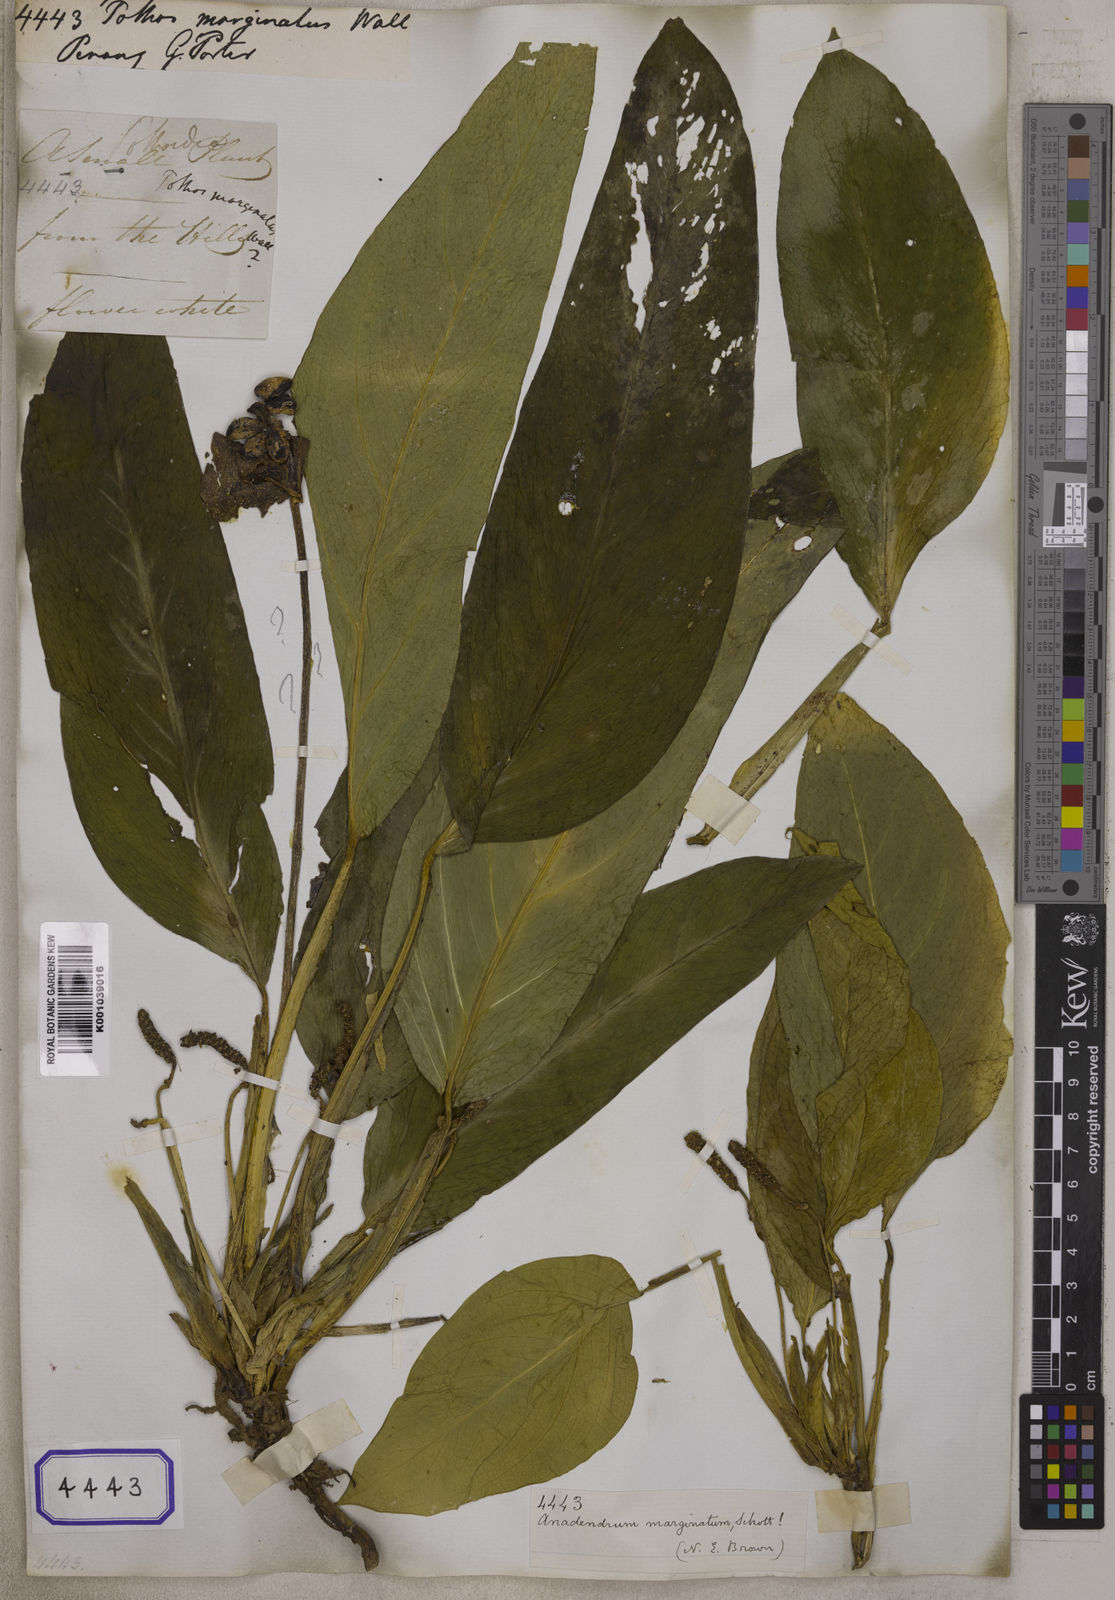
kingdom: Plantae
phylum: Tracheophyta
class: Liliopsida
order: Alismatales
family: Araceae
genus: Pothos
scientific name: Pothos
